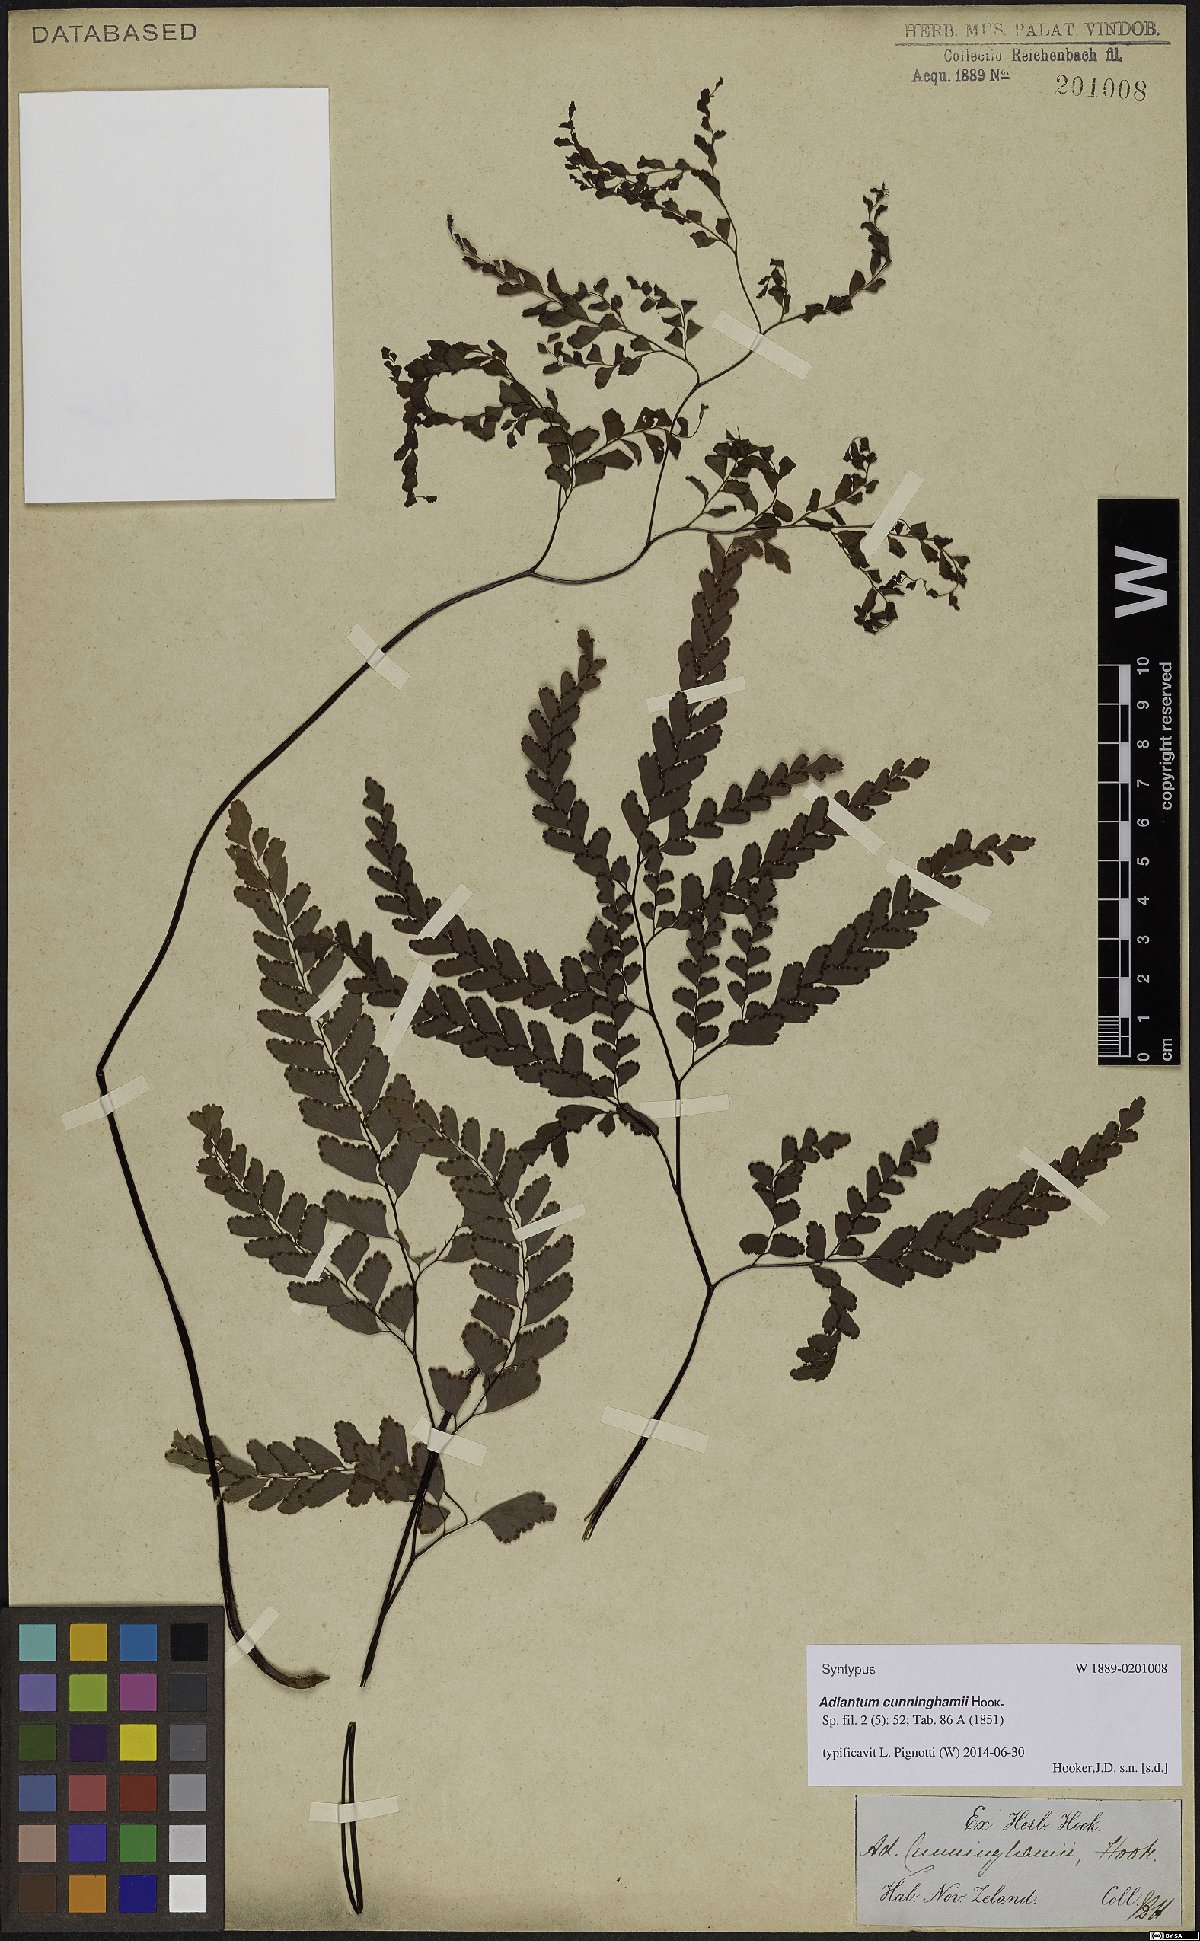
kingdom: Plantae
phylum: Tracheophyta
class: Polypodiopsida
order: Polypodiales
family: Pteridaceae
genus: Adiantum
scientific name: Adiantum cunninghamii
